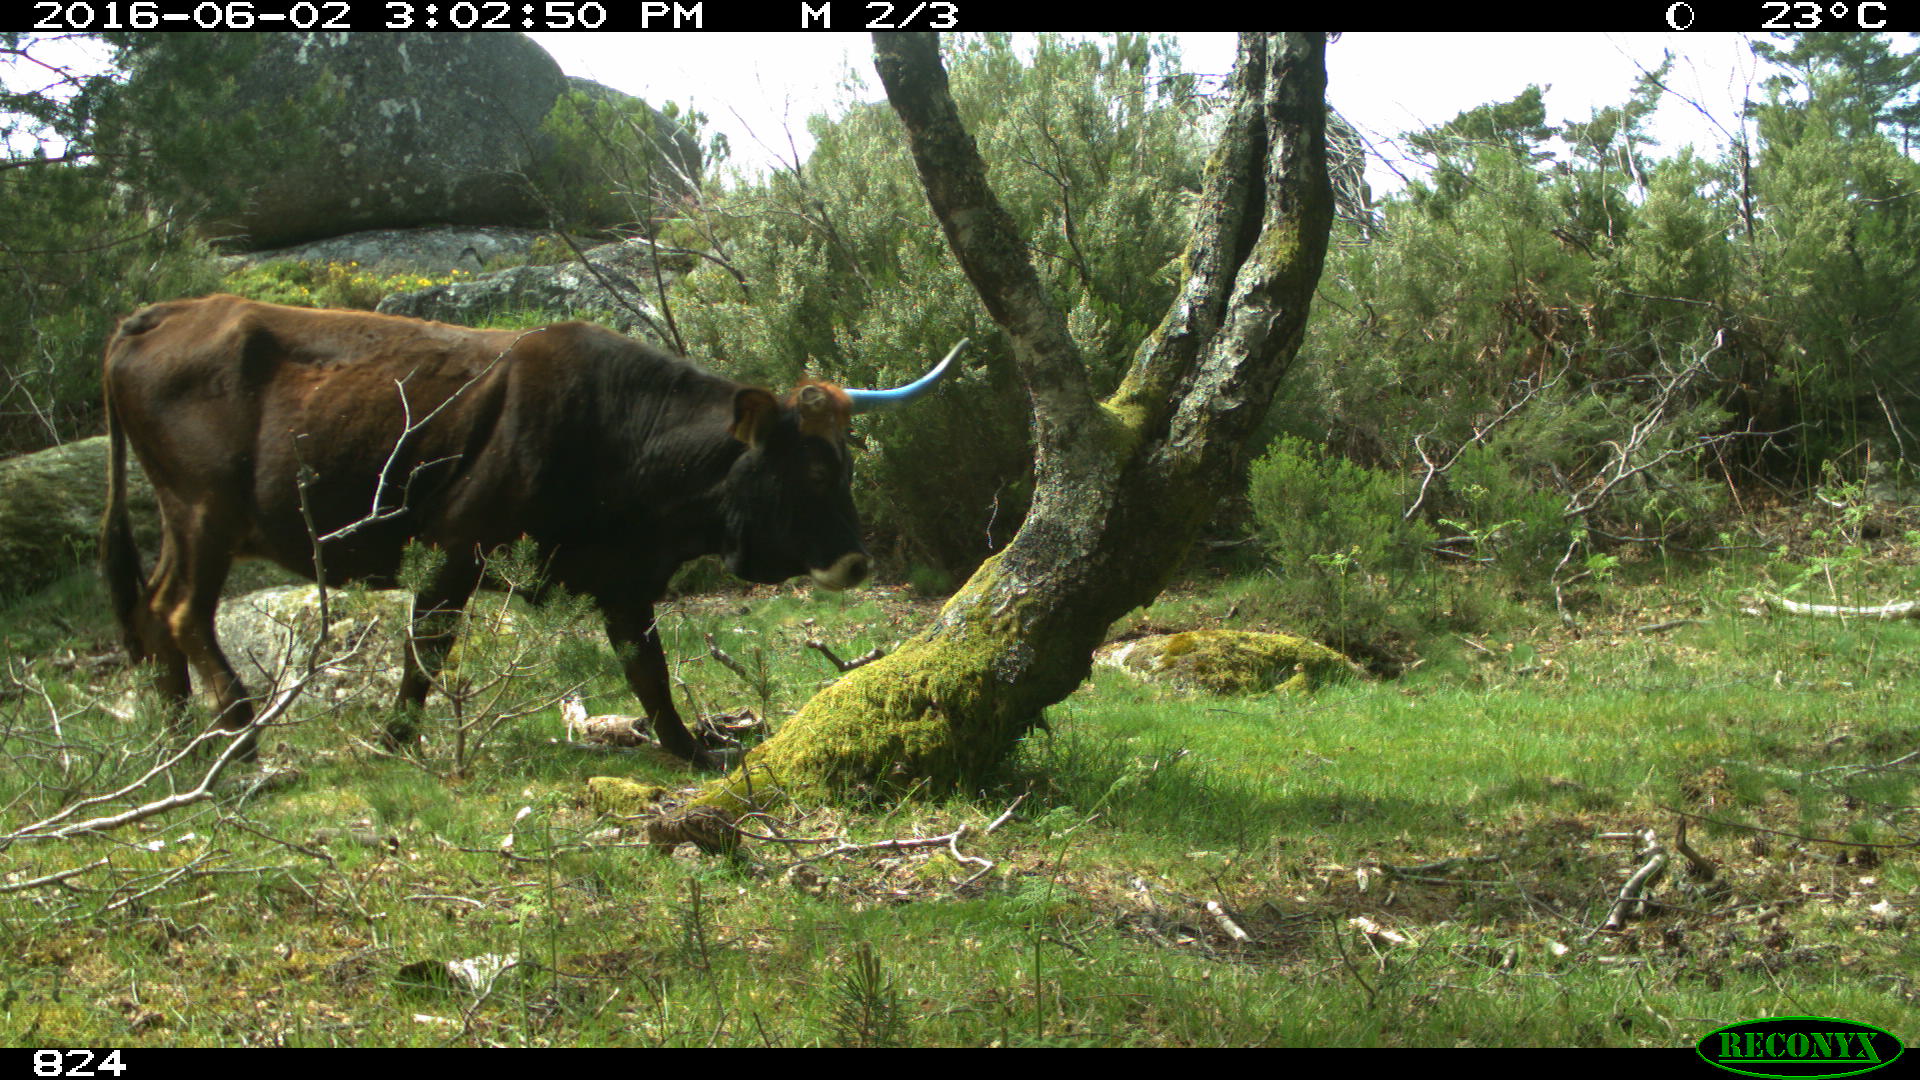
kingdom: Animalia
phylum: Chordata
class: Mammalia
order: Artiodactyla
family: Bovidae
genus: Bos
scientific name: Bos taurus
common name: Domesticated cattle
